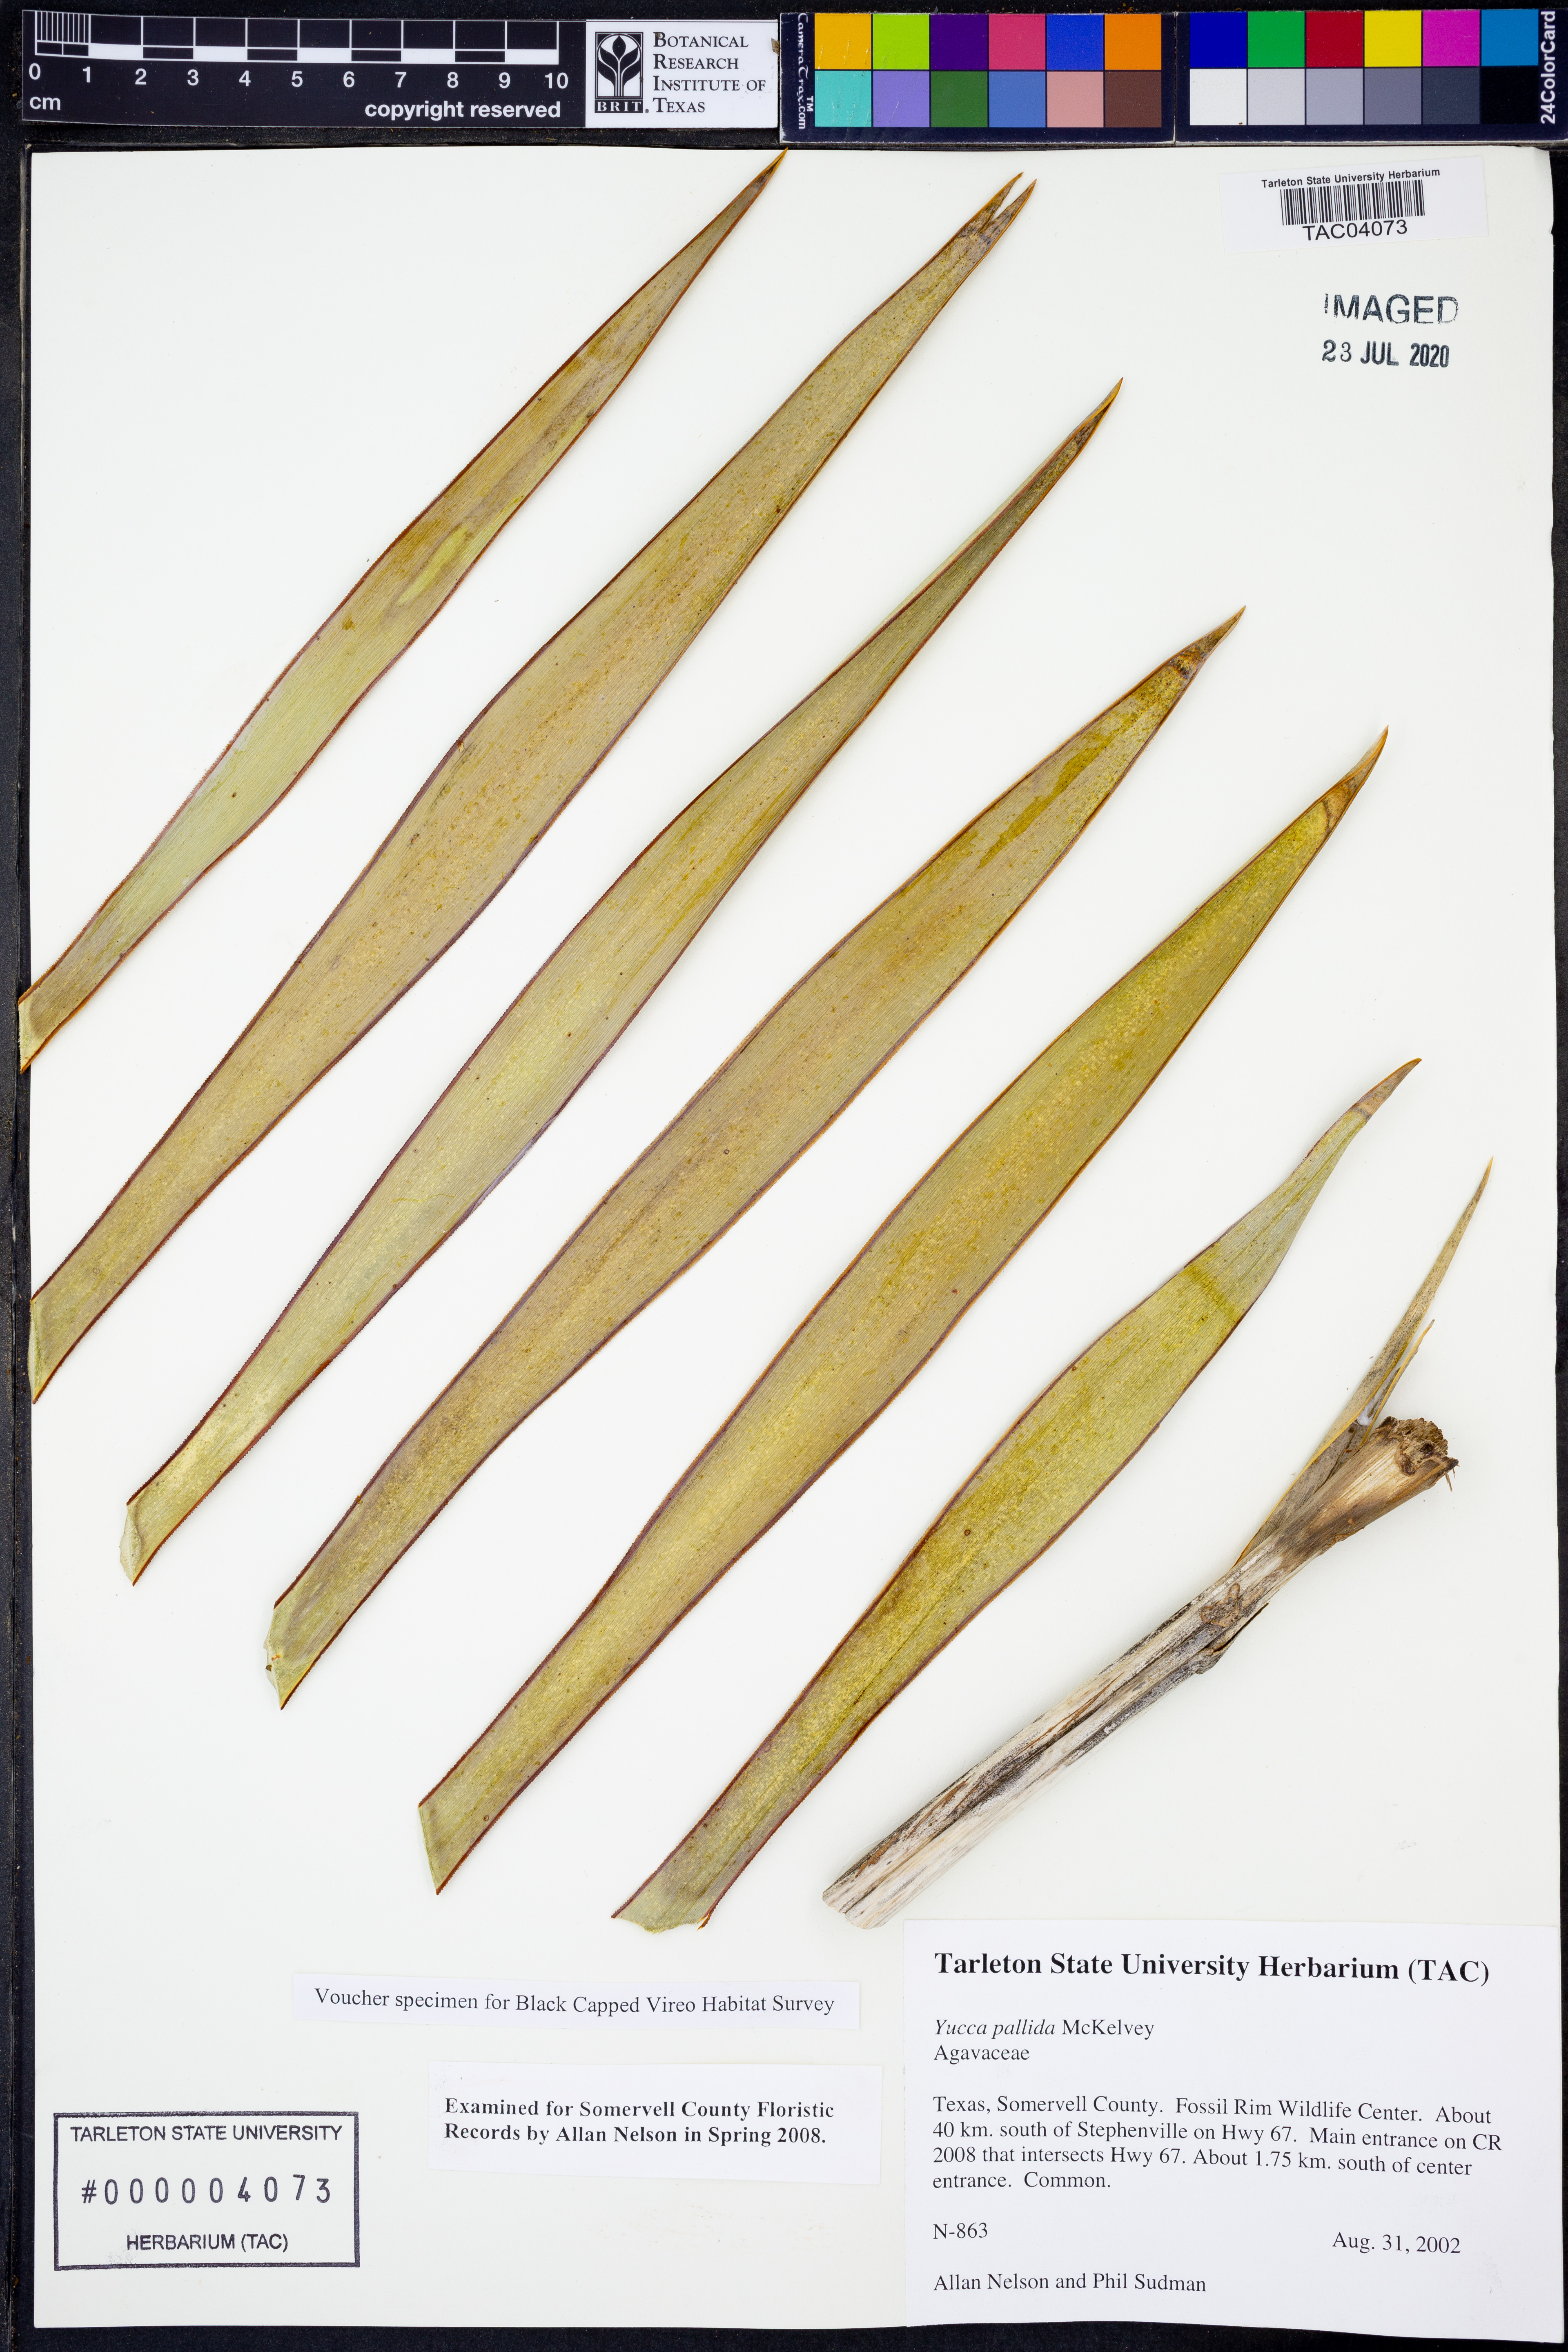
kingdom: Plantae
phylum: Tracheophyta
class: Liliopsida
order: Asparagales
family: Asparagaceae
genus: Yucca
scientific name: Yucca pallida
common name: Pale leaf yucca
